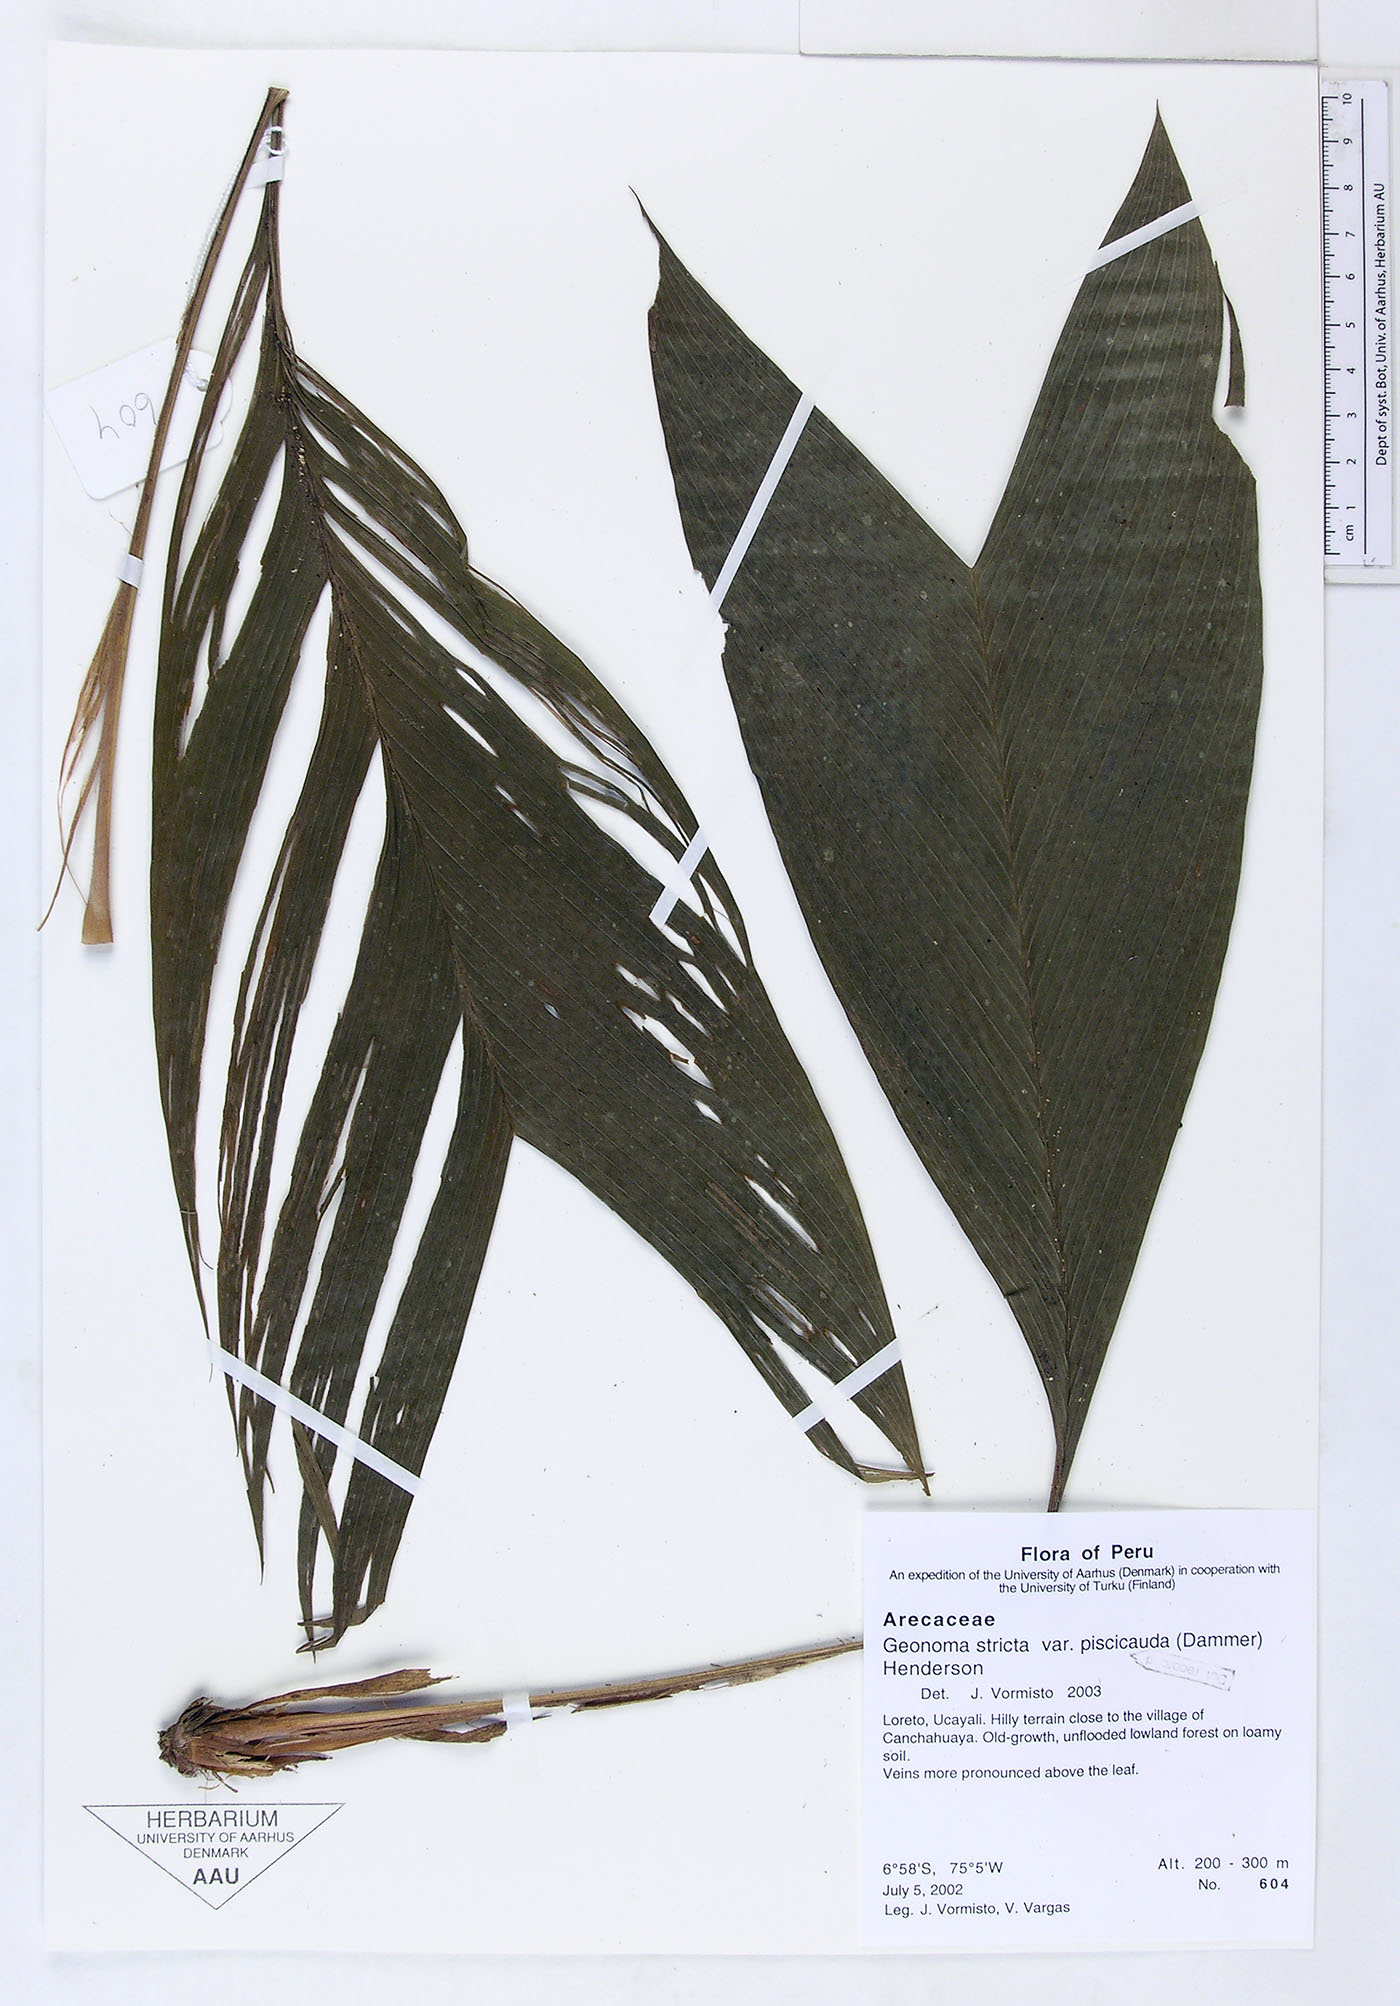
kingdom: Plantae
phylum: Tracheophyta
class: Liliopsida
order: Arecales
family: Arecaceae
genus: Geonoma
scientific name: Geonoma stricta
